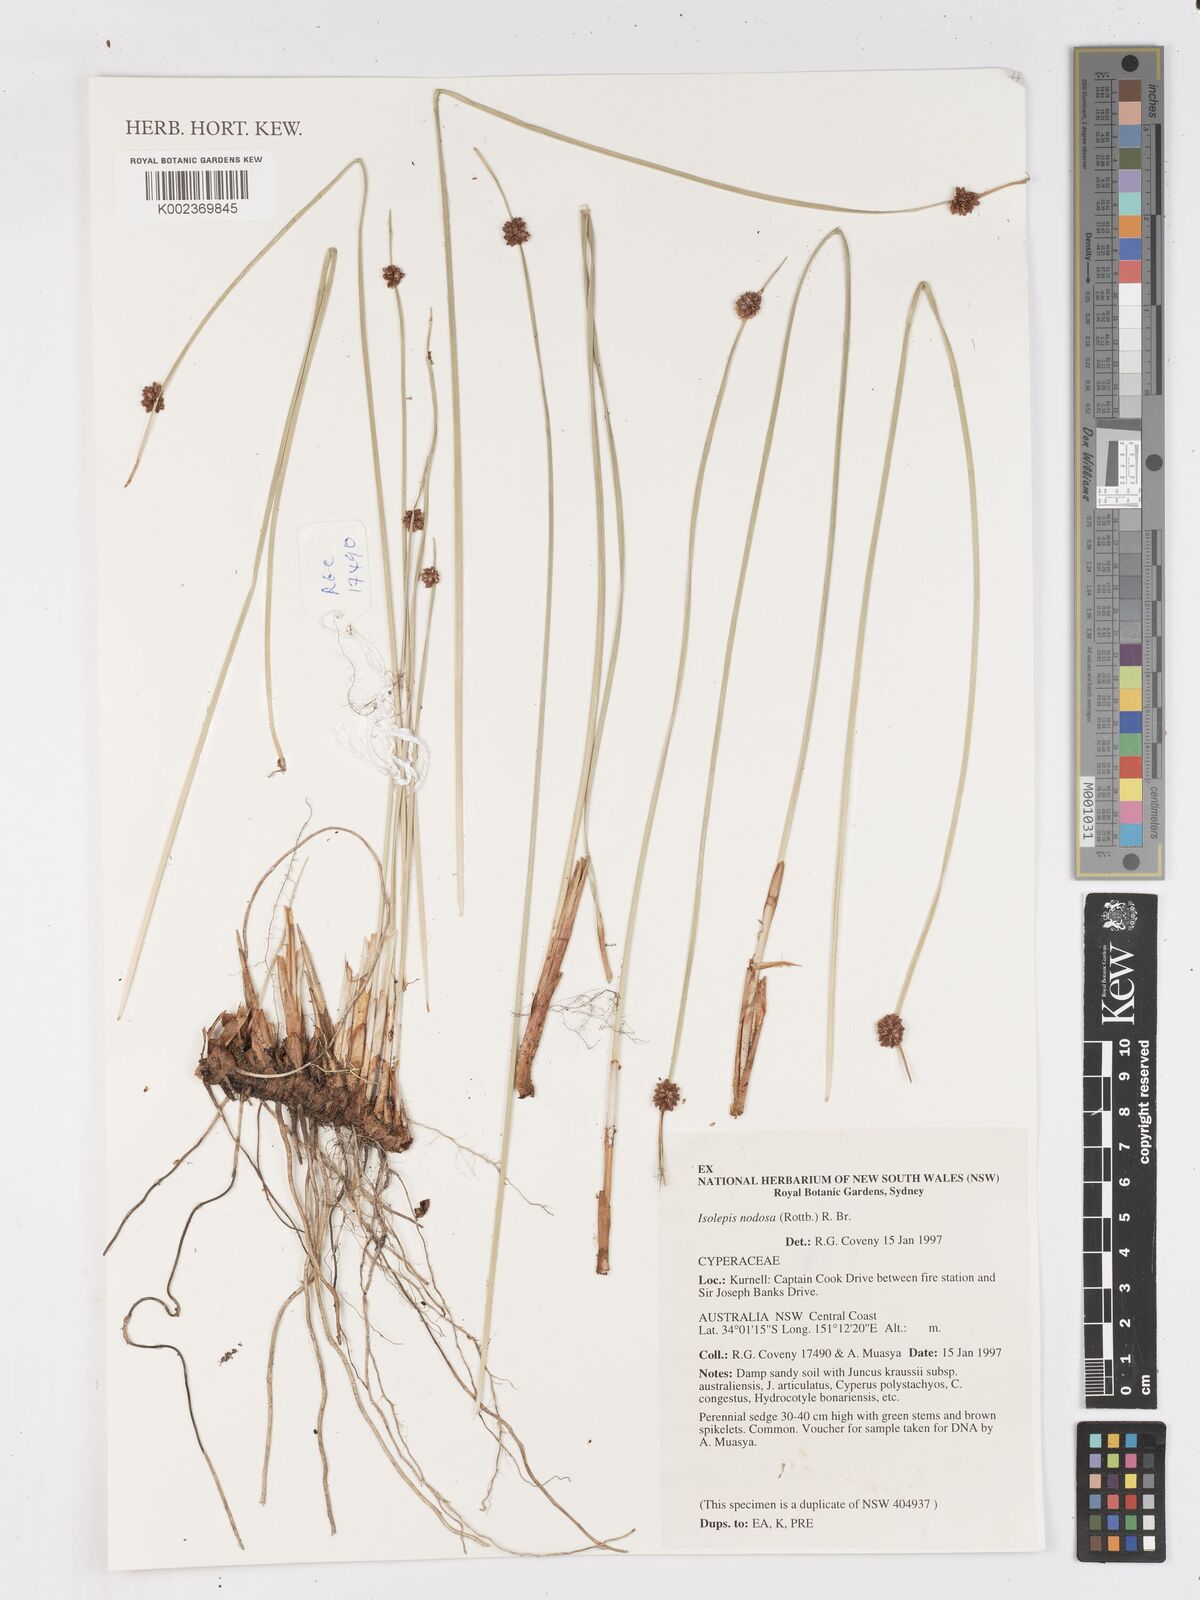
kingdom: Plantae
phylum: Tracheophyta
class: Liliopsida
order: Poales
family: Cyperaceae
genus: Ficinia
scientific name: Ficinia nodosa
